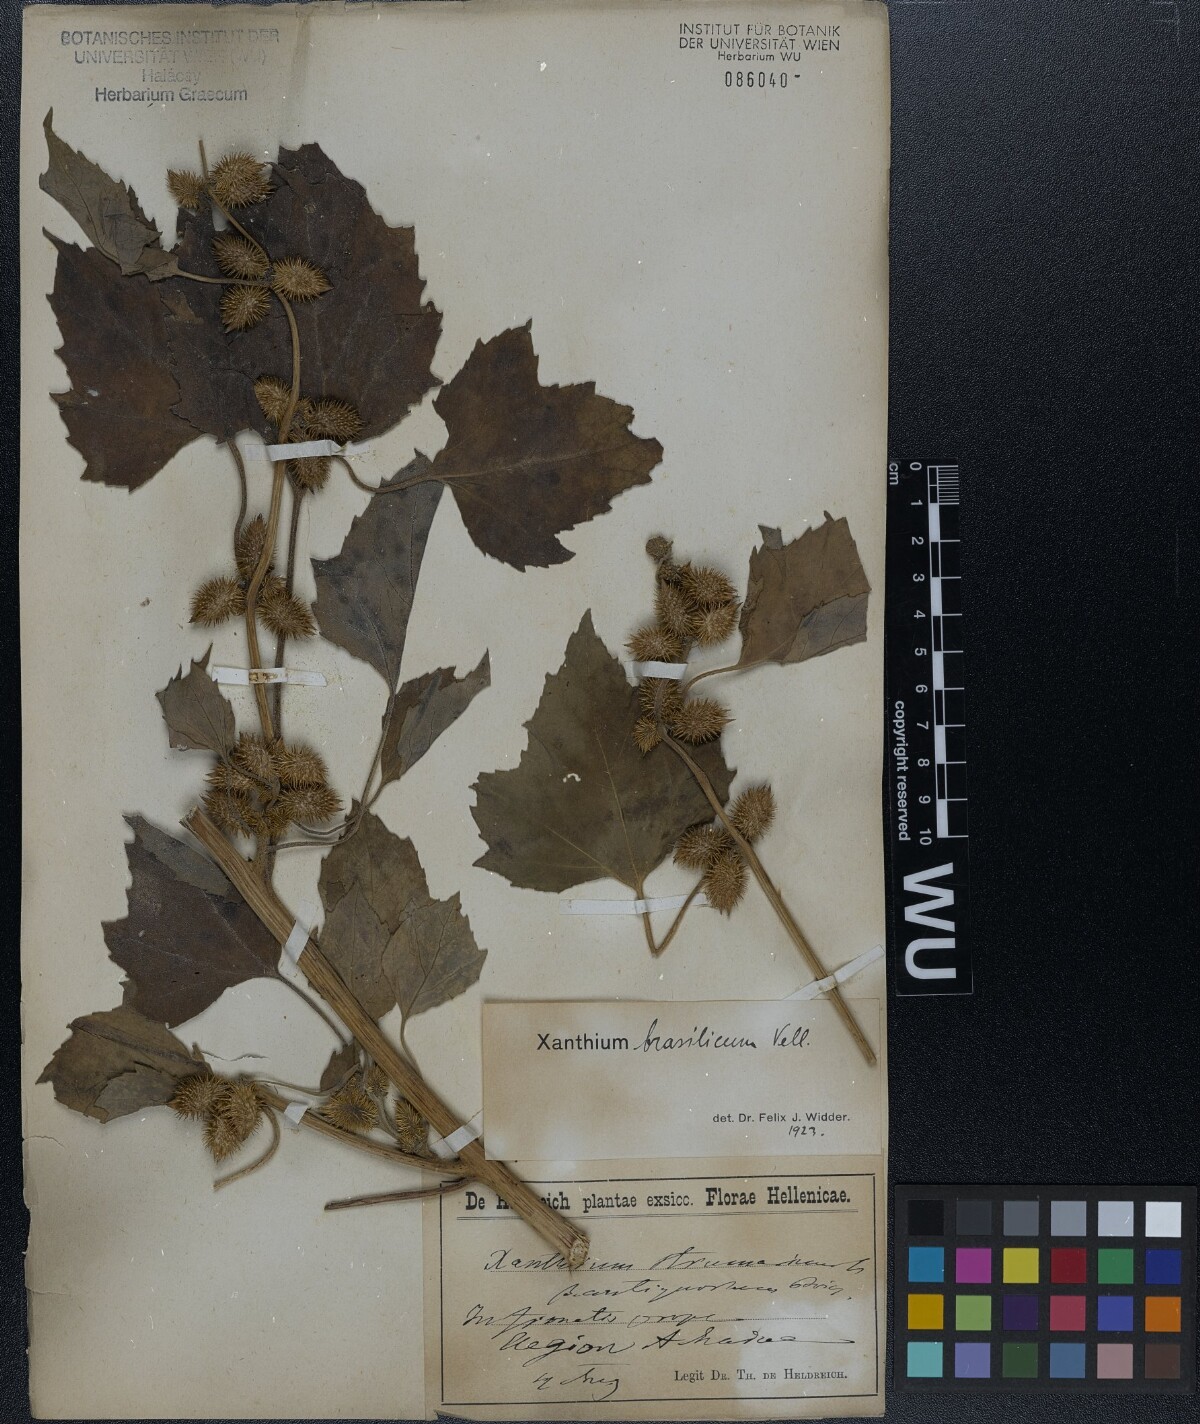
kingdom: Plantae
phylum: Tracheophyta
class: Magnoliopsida
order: Asterales
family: Asteraceae
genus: Xanthium
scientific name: Xanthium strumarium
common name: Rough cocklebur
